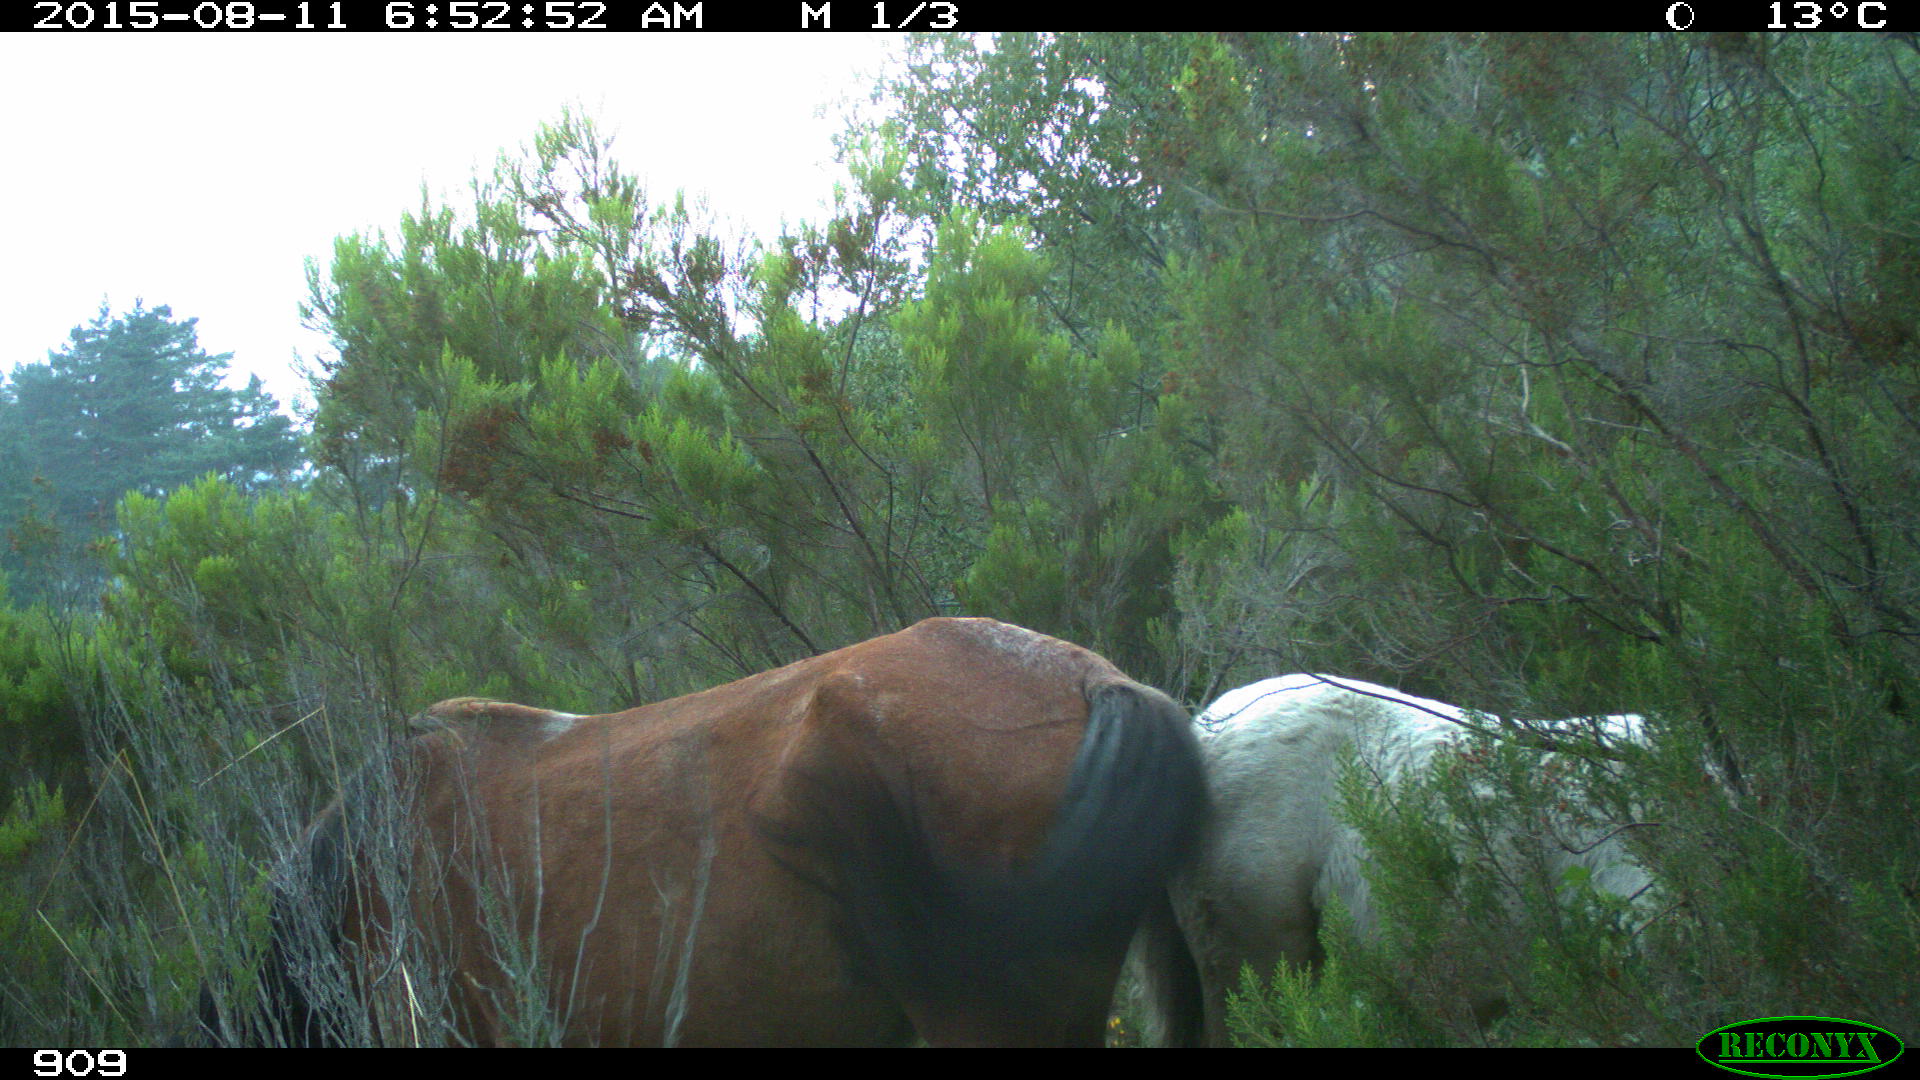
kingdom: Animalia
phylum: Chordata
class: Mammalia
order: Perissodactyla
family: Equidae
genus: Equus
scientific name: Equus caballus
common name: Horse
